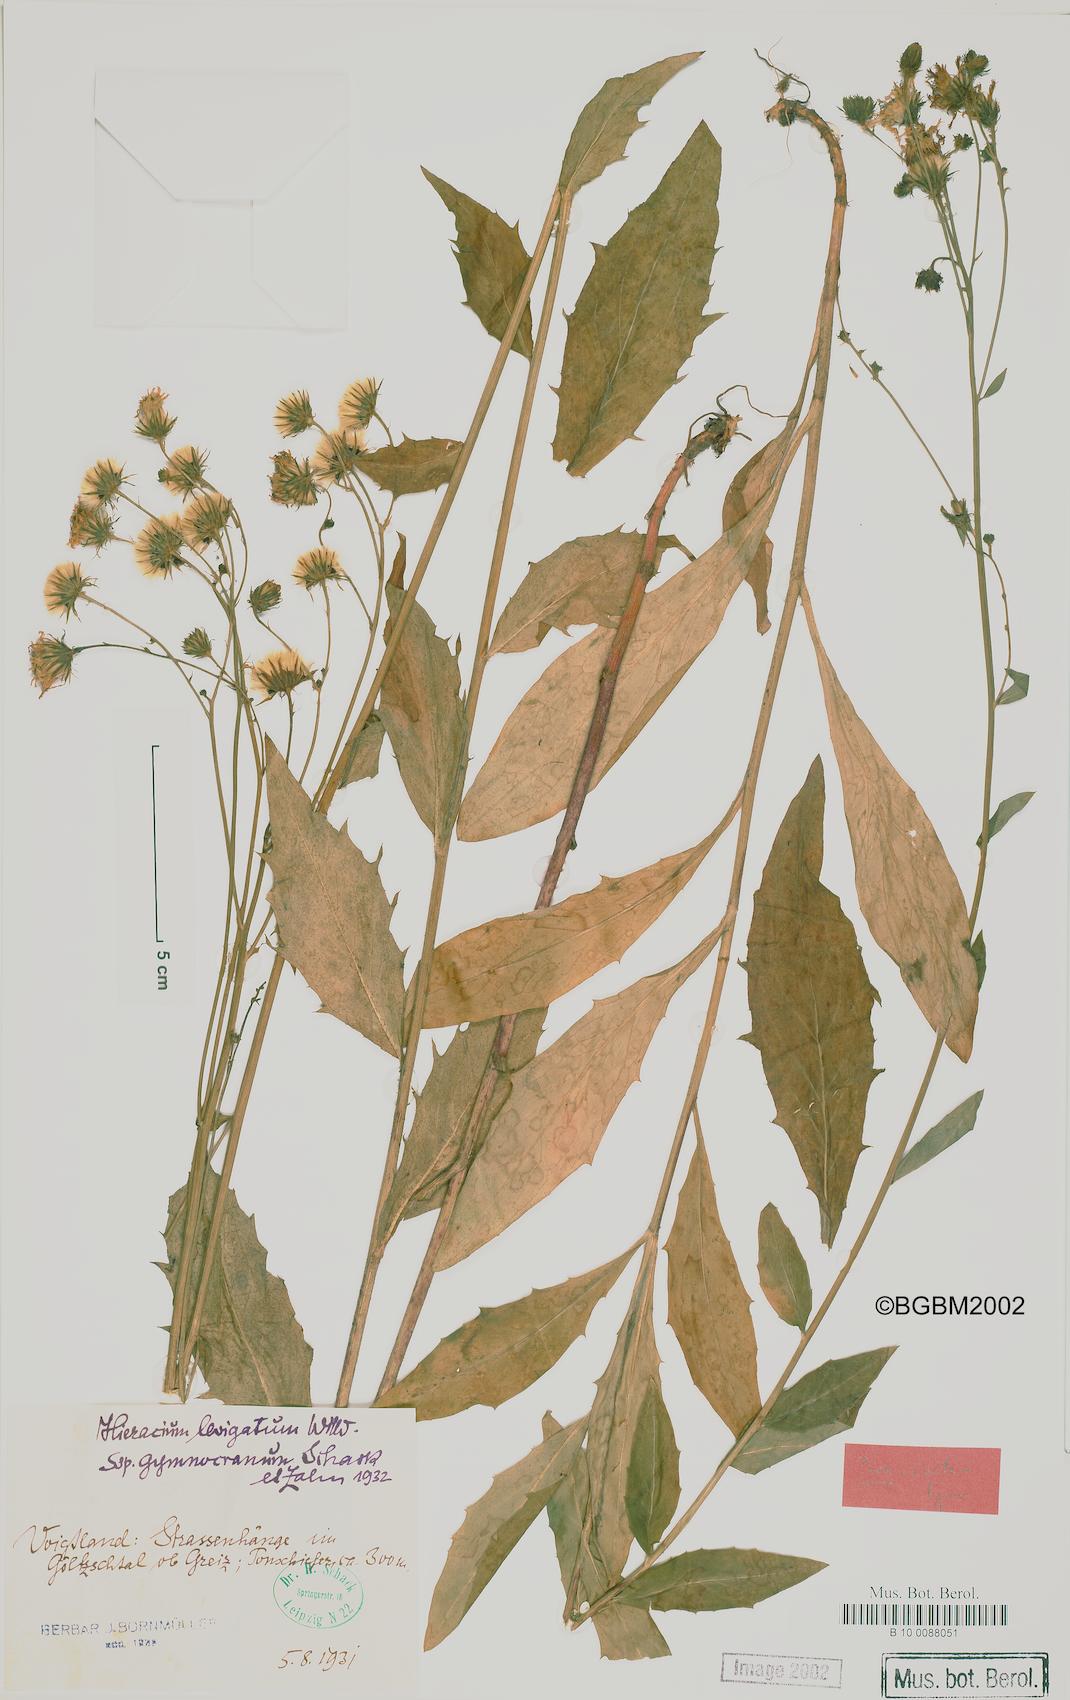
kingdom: Plantae
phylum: Tracheophyta
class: Magnoliopsida
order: Asterales
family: Asteraceae
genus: Hieracium
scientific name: Hieracium laevigatum
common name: Smooth hawkweed
